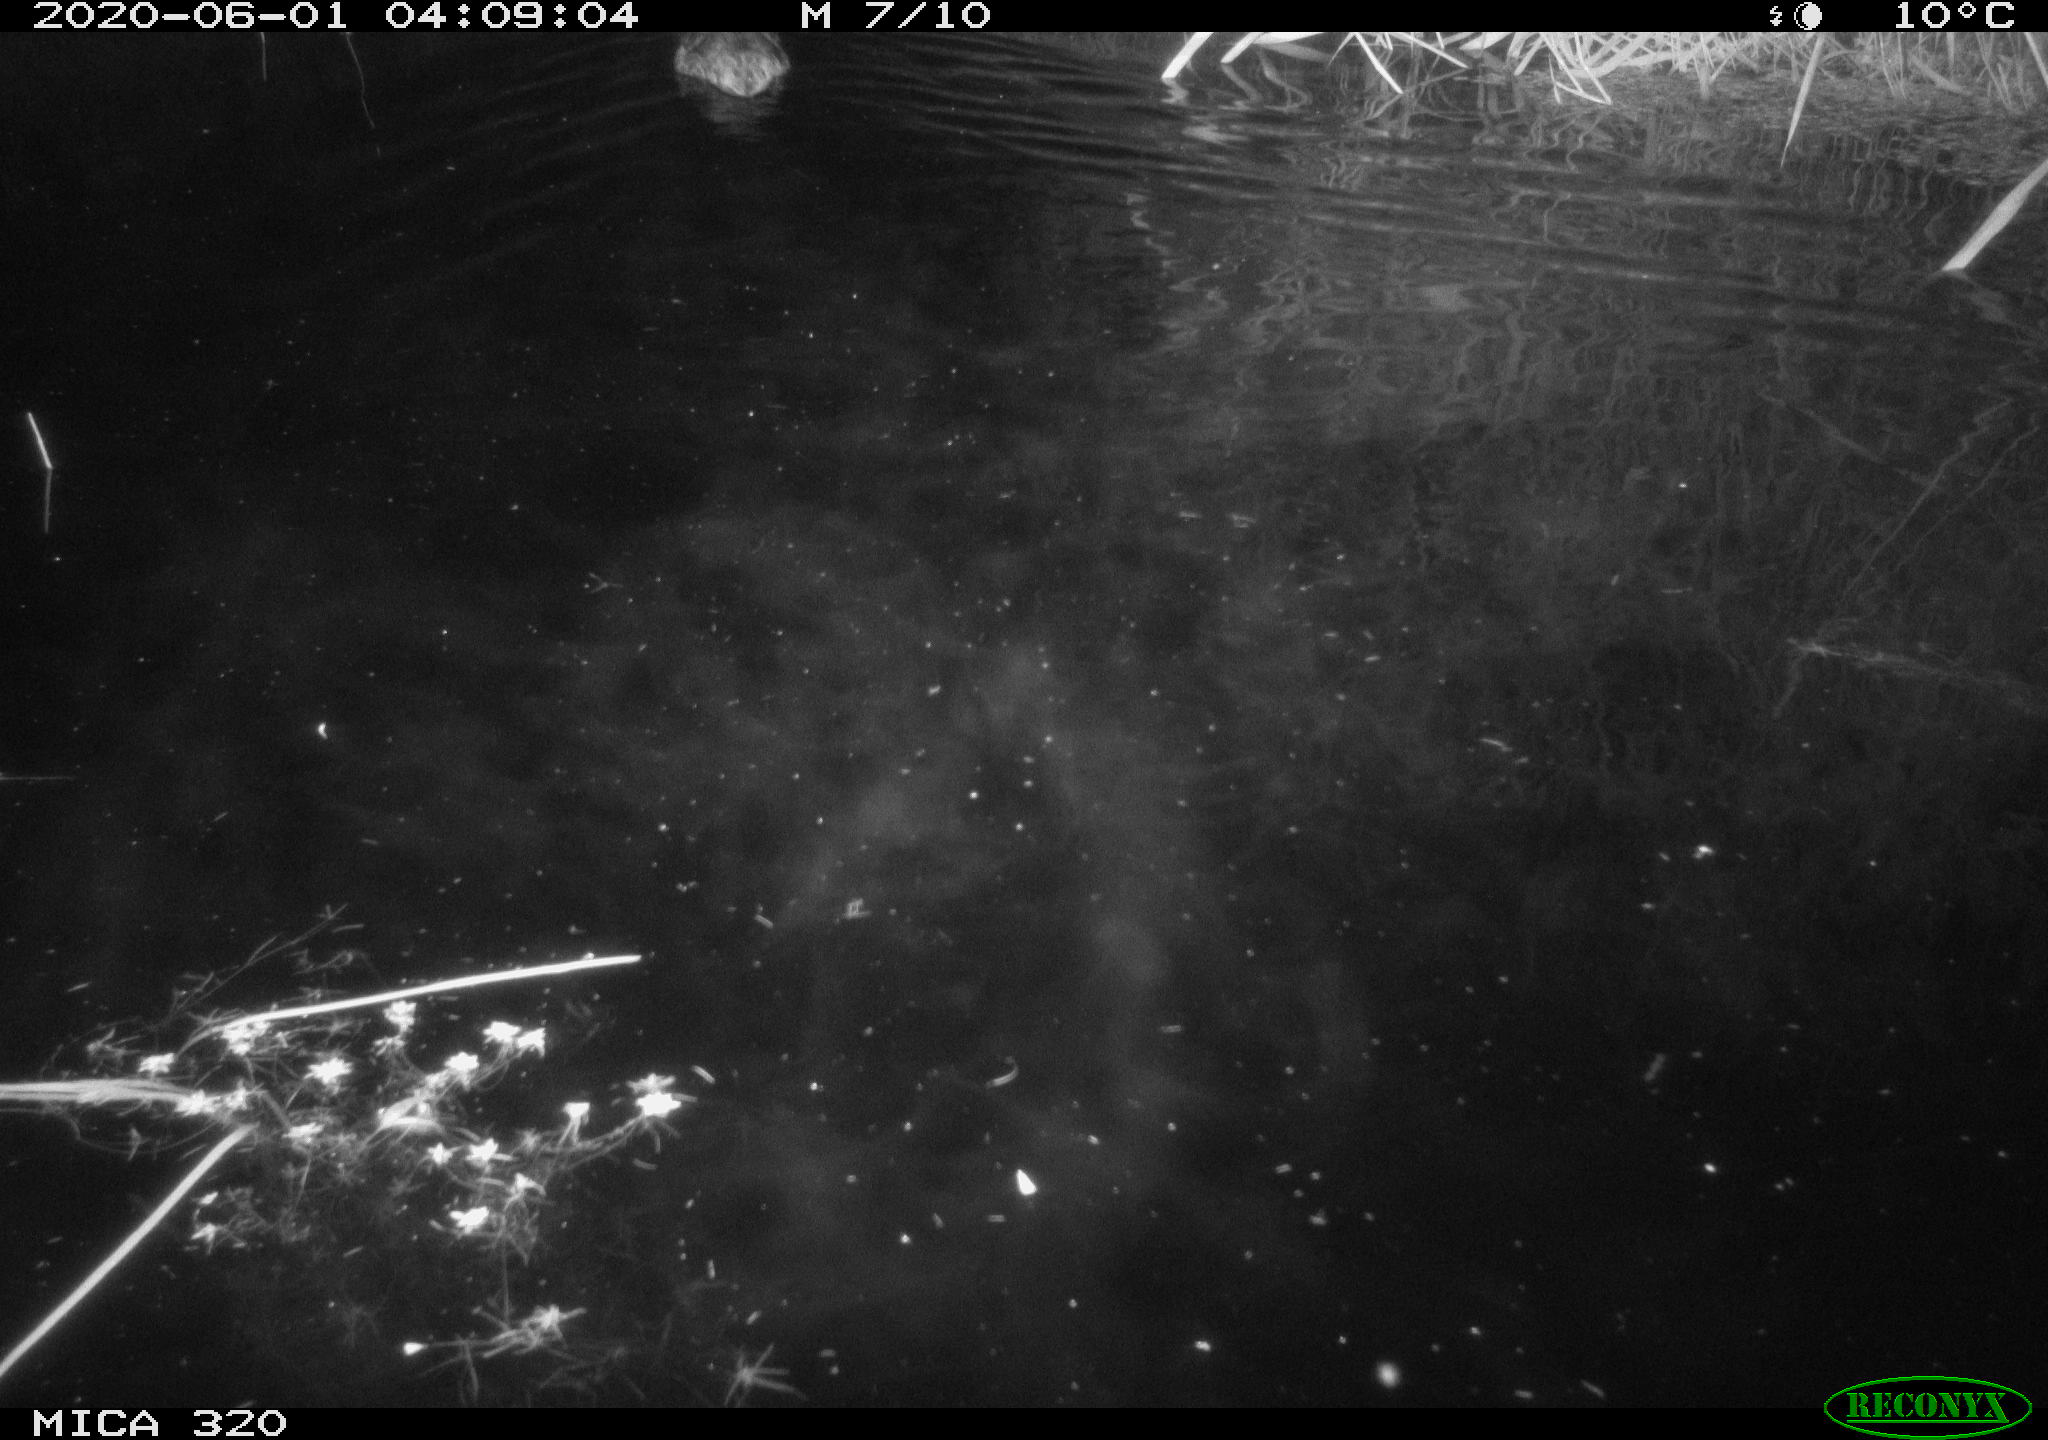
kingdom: Animalia
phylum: Chordata
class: Aves
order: Anseriformes
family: Anatidae
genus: Anas
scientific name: Anas platyrhynchos
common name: Mallard
